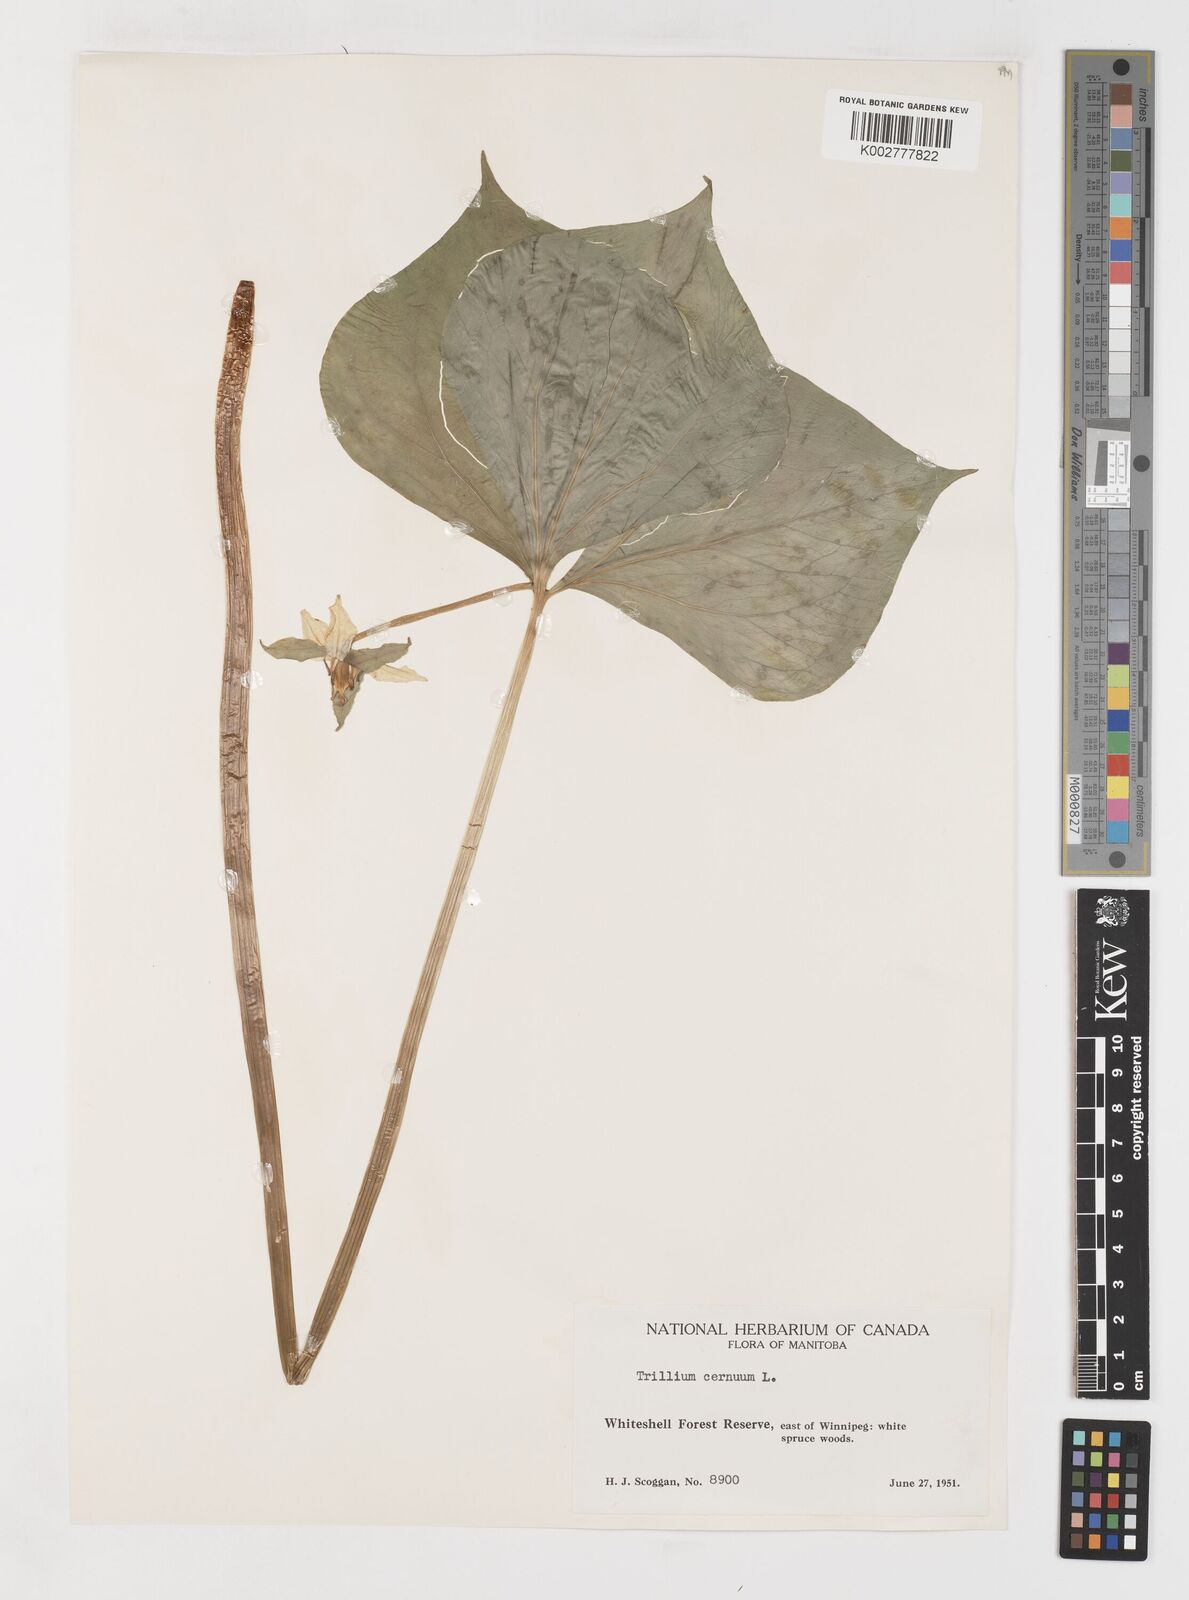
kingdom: Plantae
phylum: Tracheophyta
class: Liliopsida
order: Liliales
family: Melanthiaceae
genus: Trillium
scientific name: Trillium cernuum
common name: Nodding trillium
